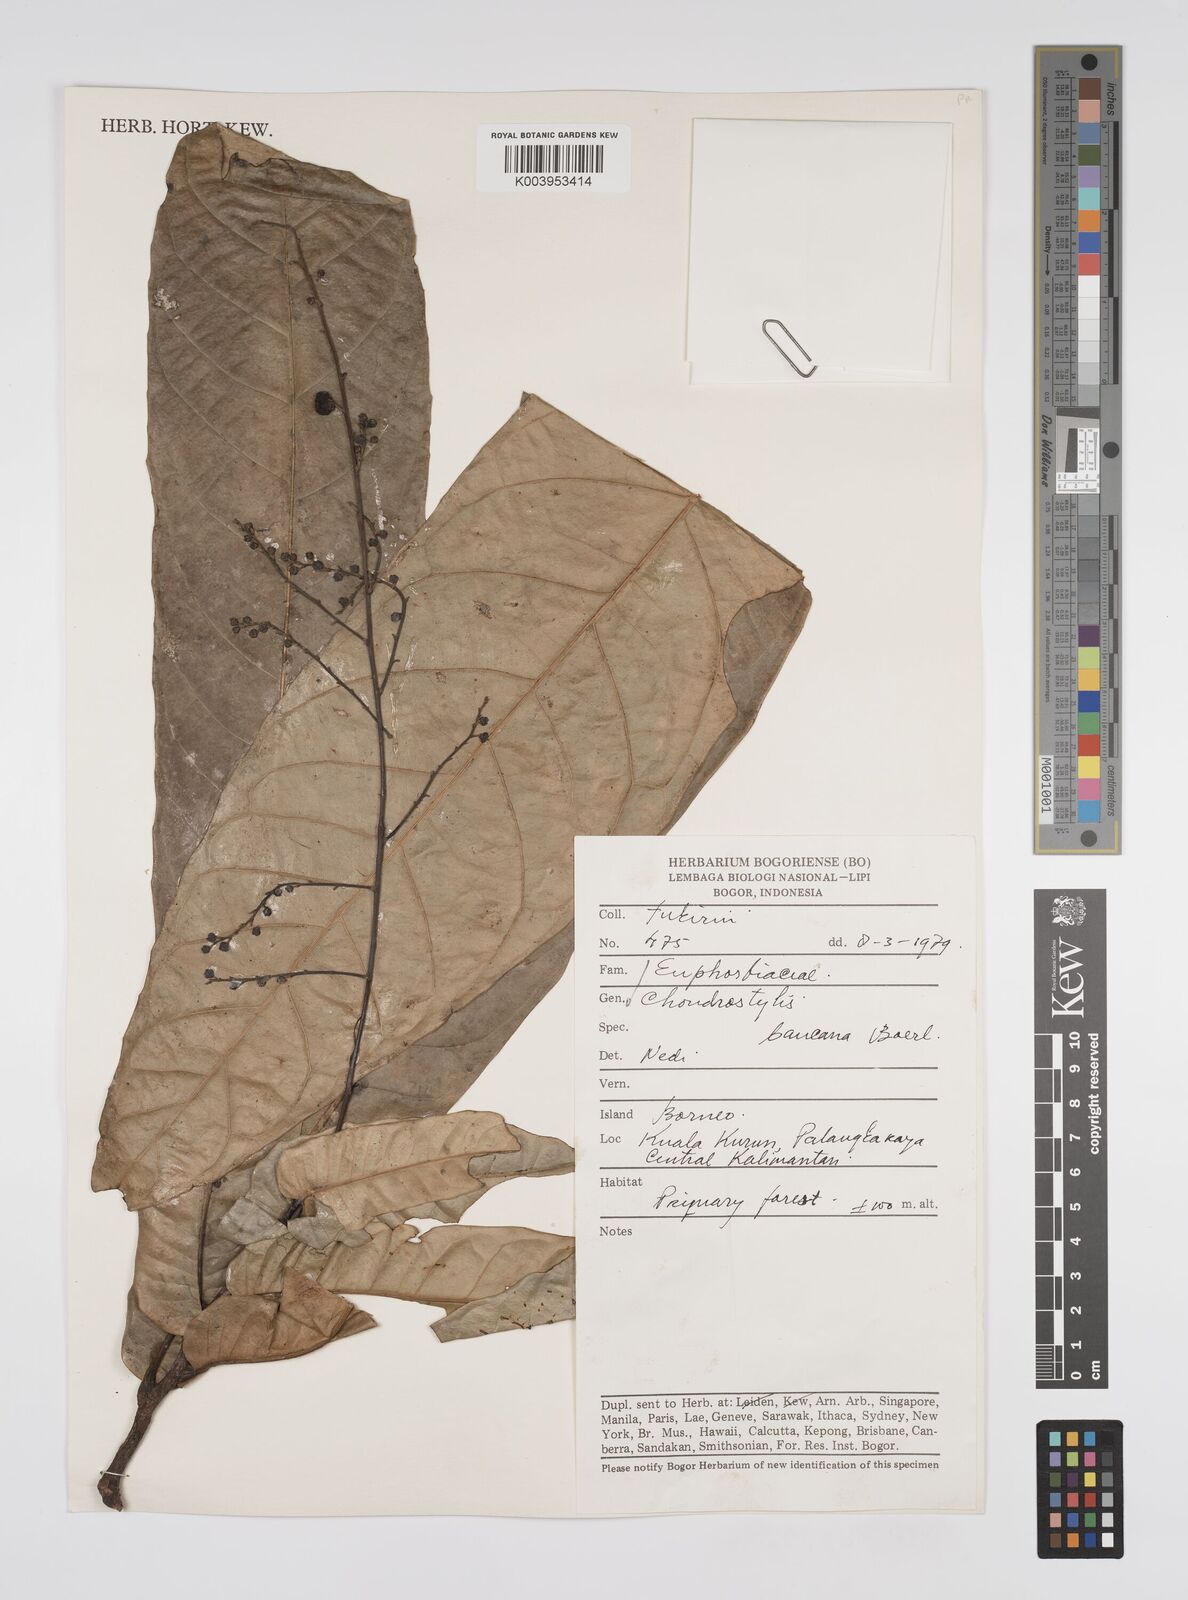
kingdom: Plantae
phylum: Tracheophyta
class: Magnoliopsida
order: Malpighiales
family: Euphorbiaceae
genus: Chondrostylis
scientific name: Chondrostylis bancana
